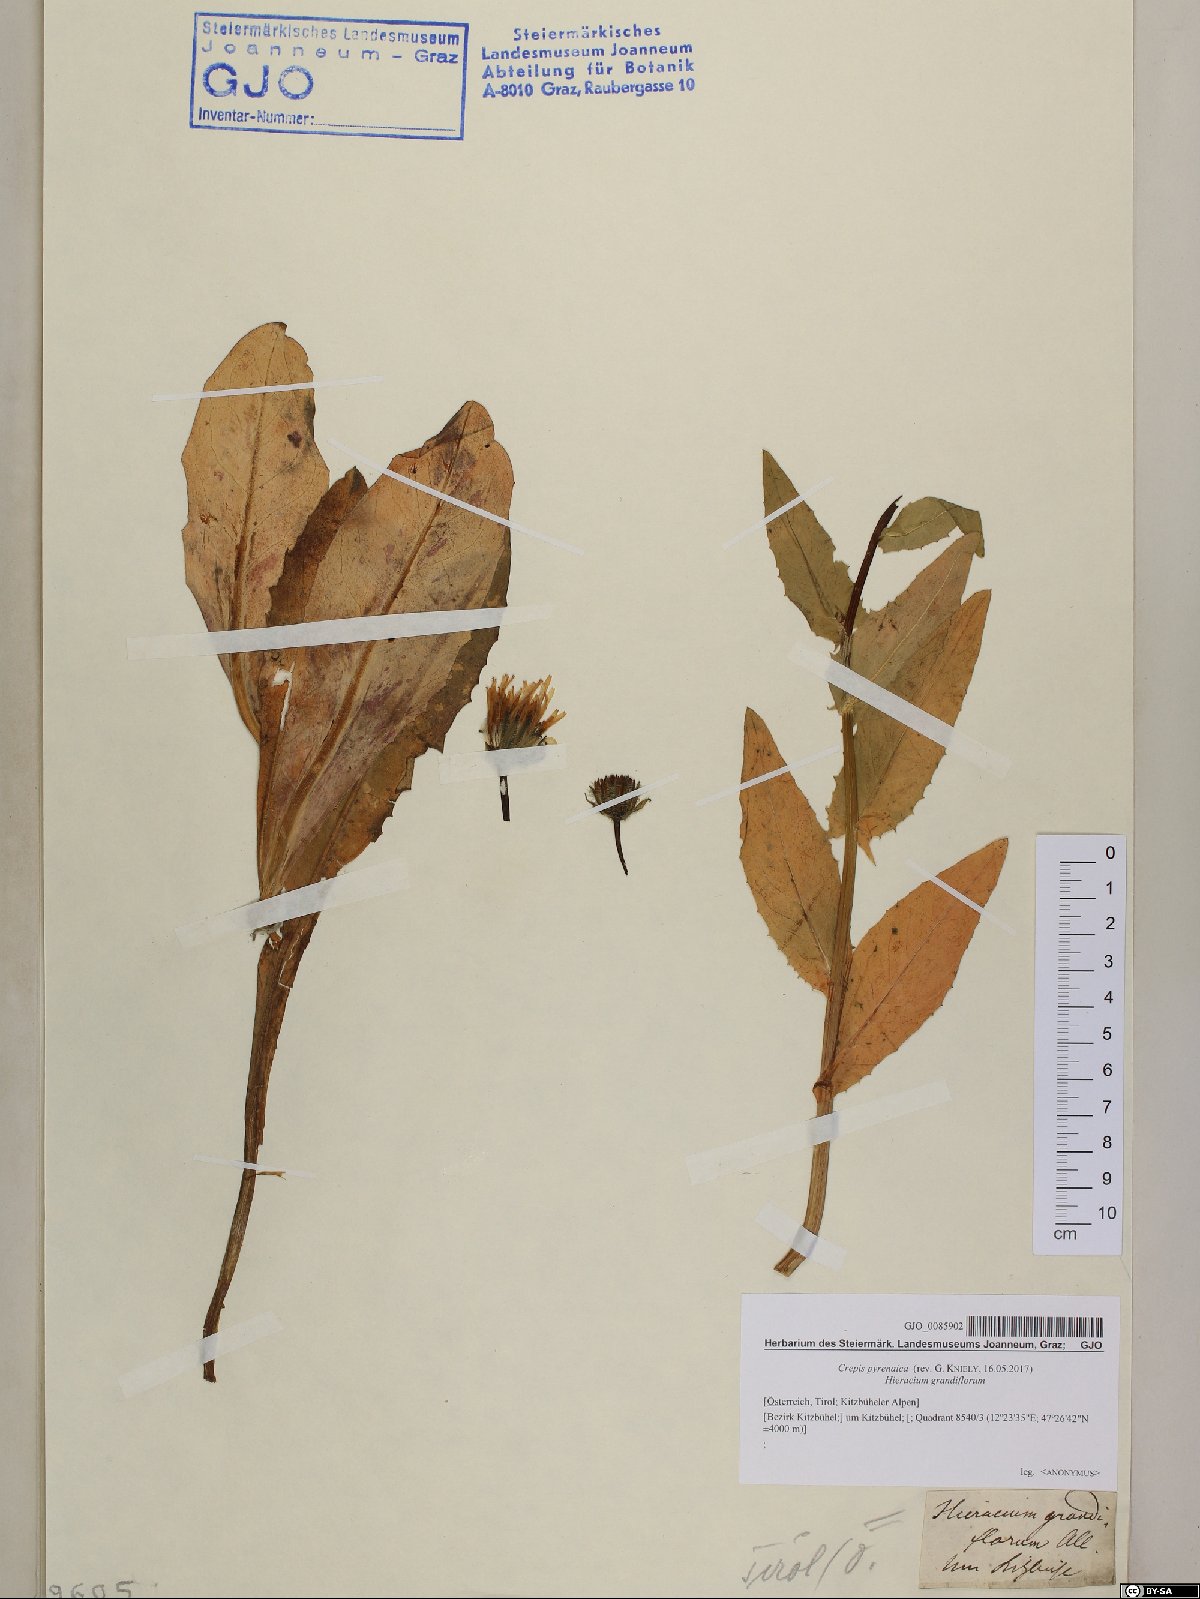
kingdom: Plantae
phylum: Tracheophyta
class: Magnoliopsida
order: Asterales
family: Asteraceae
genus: Crepis
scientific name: Crepis pyrenaica
